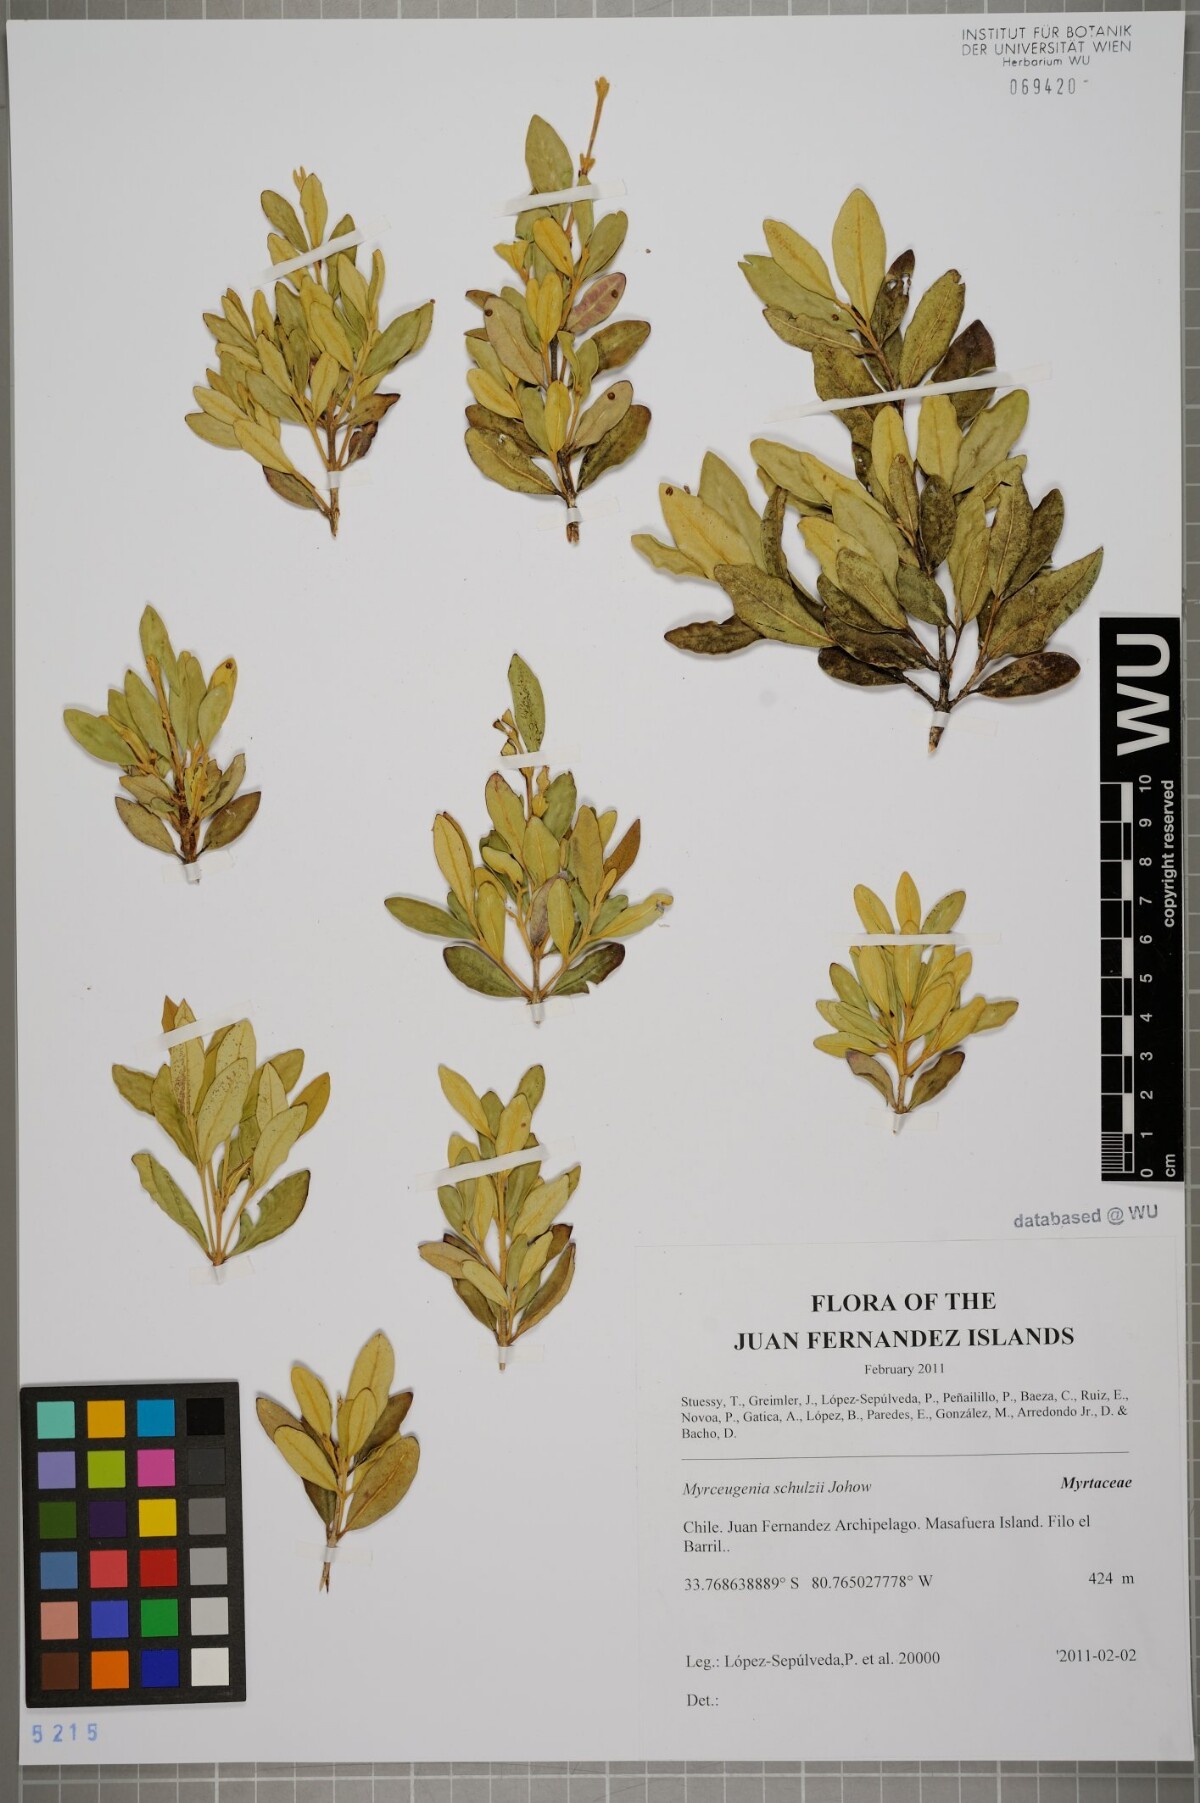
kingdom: Plantae
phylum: Tracheophyta
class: Magnoliopsida
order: Myrtales
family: Myrtaceae
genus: Myrceugenia
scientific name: Myrceugenia schulzei
